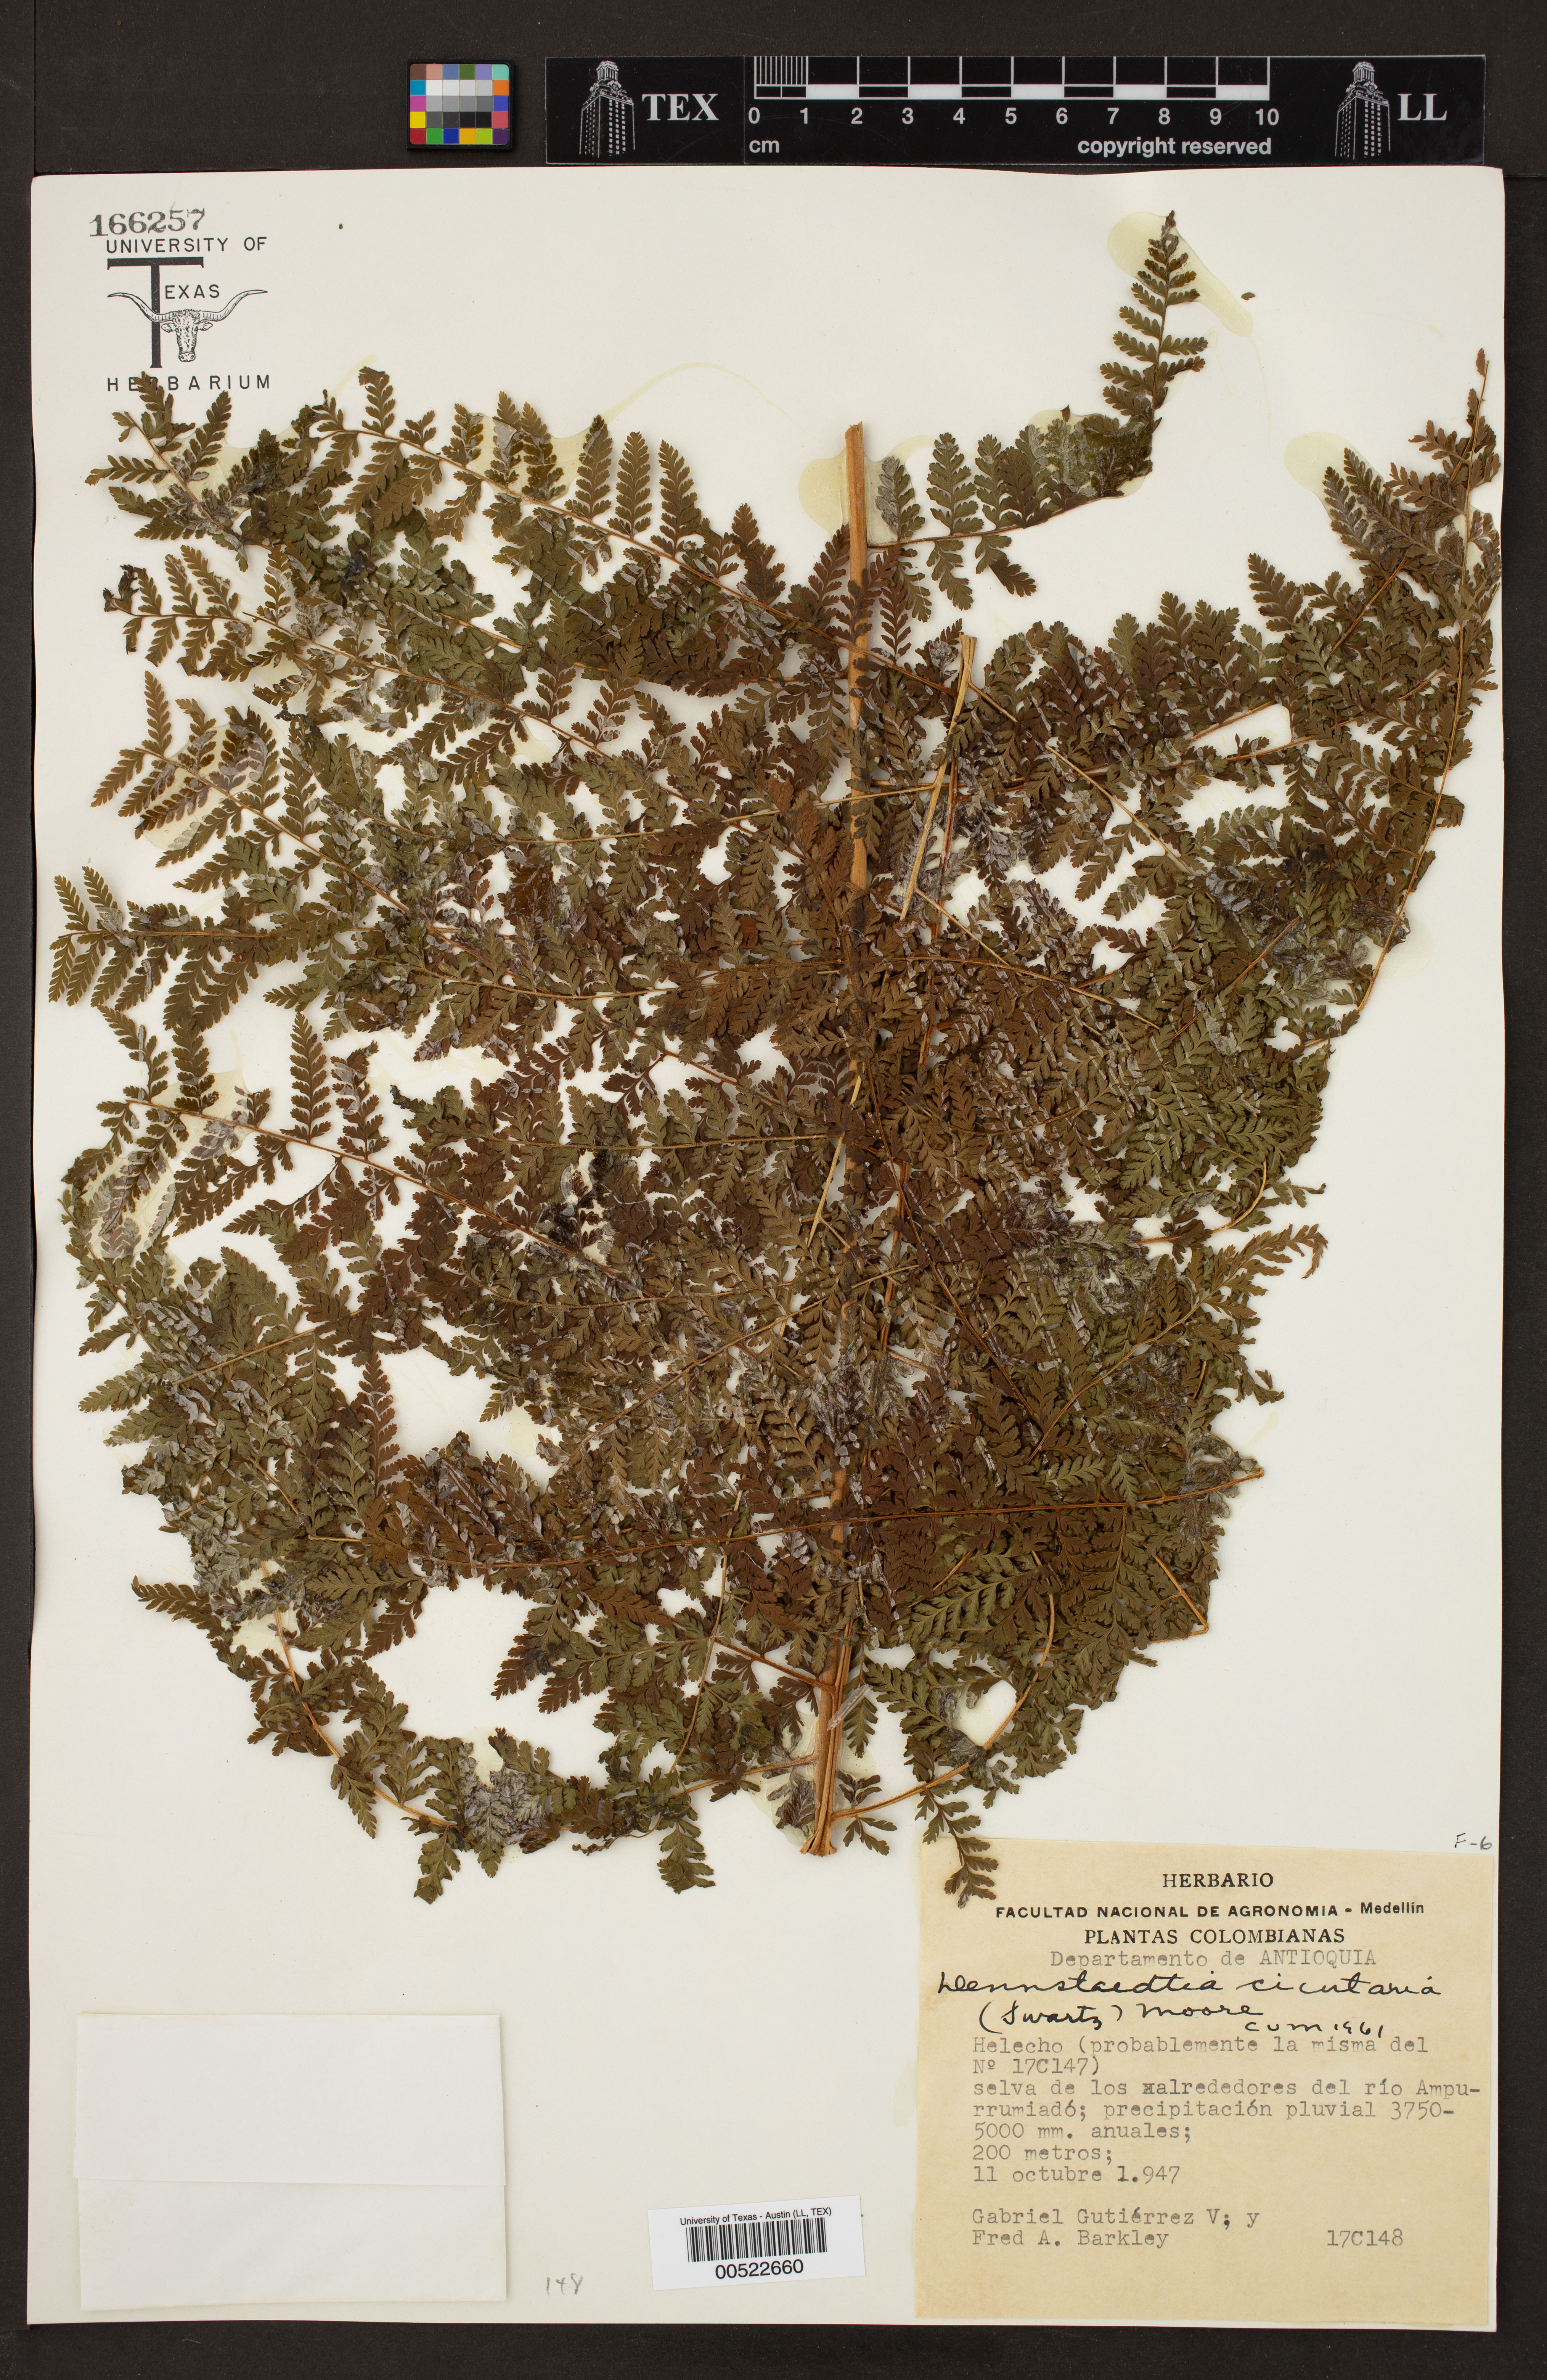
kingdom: Plantae
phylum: Tracheophyta
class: Polypodiopsida
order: Polypodiales
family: Dennstaedtiaceae
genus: Dennstaedtia
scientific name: Dennstaedtia cicutaria
